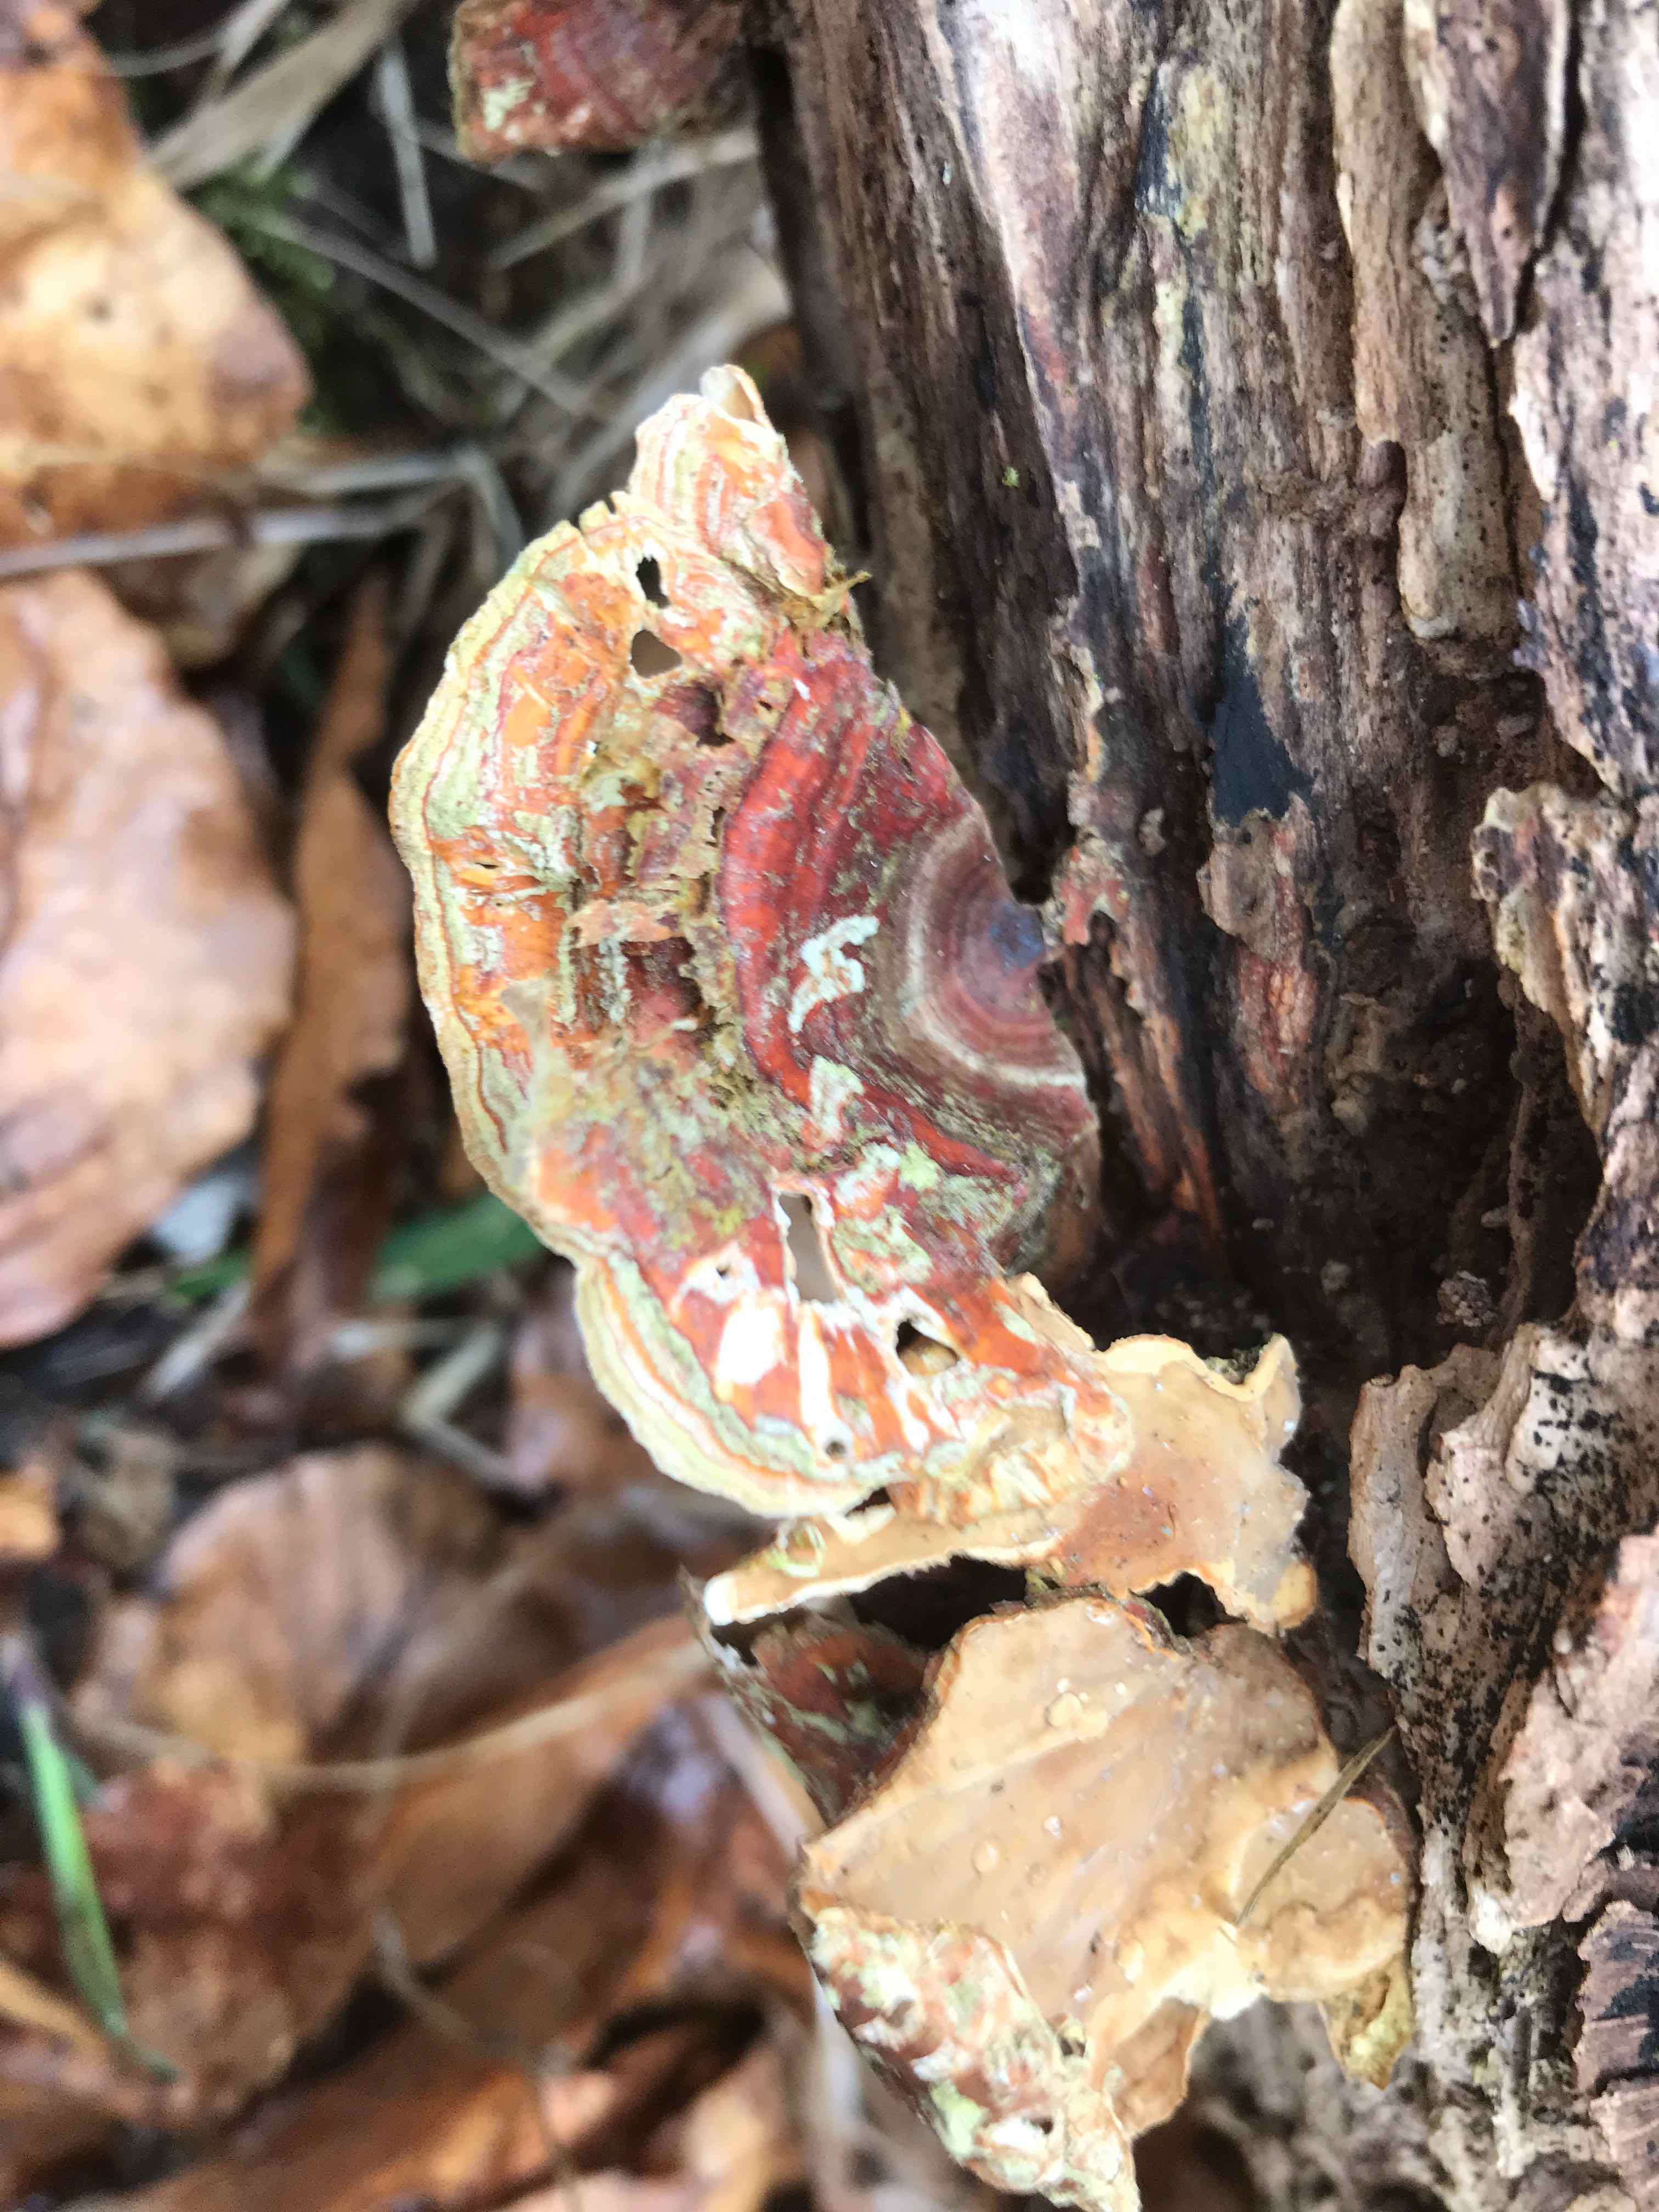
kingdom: Fungi
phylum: Basidiomycota
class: Agaricomycetes
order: Russulales
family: Stereaceae
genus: Stereum
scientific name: Stereum subtomentosum
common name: smuk lædersvamp
